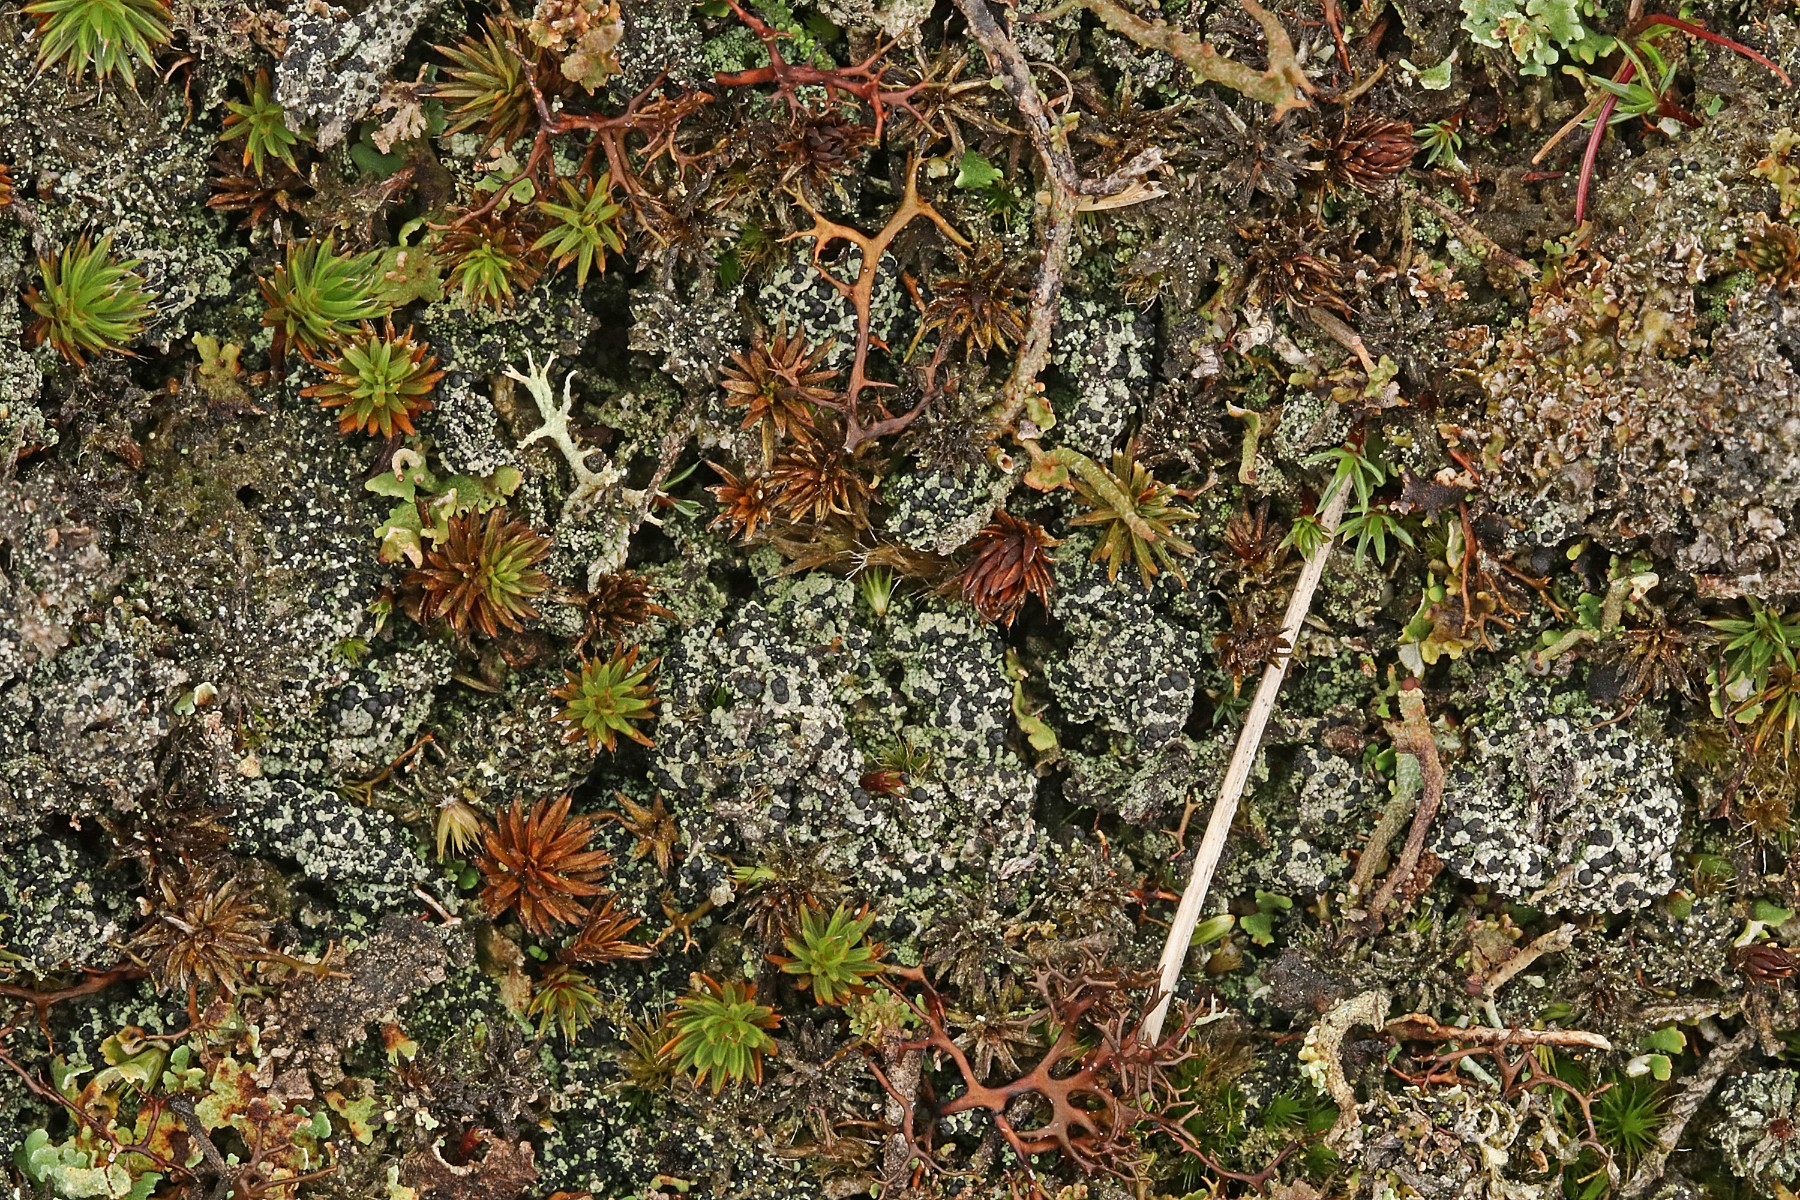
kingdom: Fungi
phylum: Ascomycota
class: Lecanoromycetes
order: Lecanorales
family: Byssolomataceae
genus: Micarea
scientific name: Micarea lignaria
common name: tørve-knaplav
